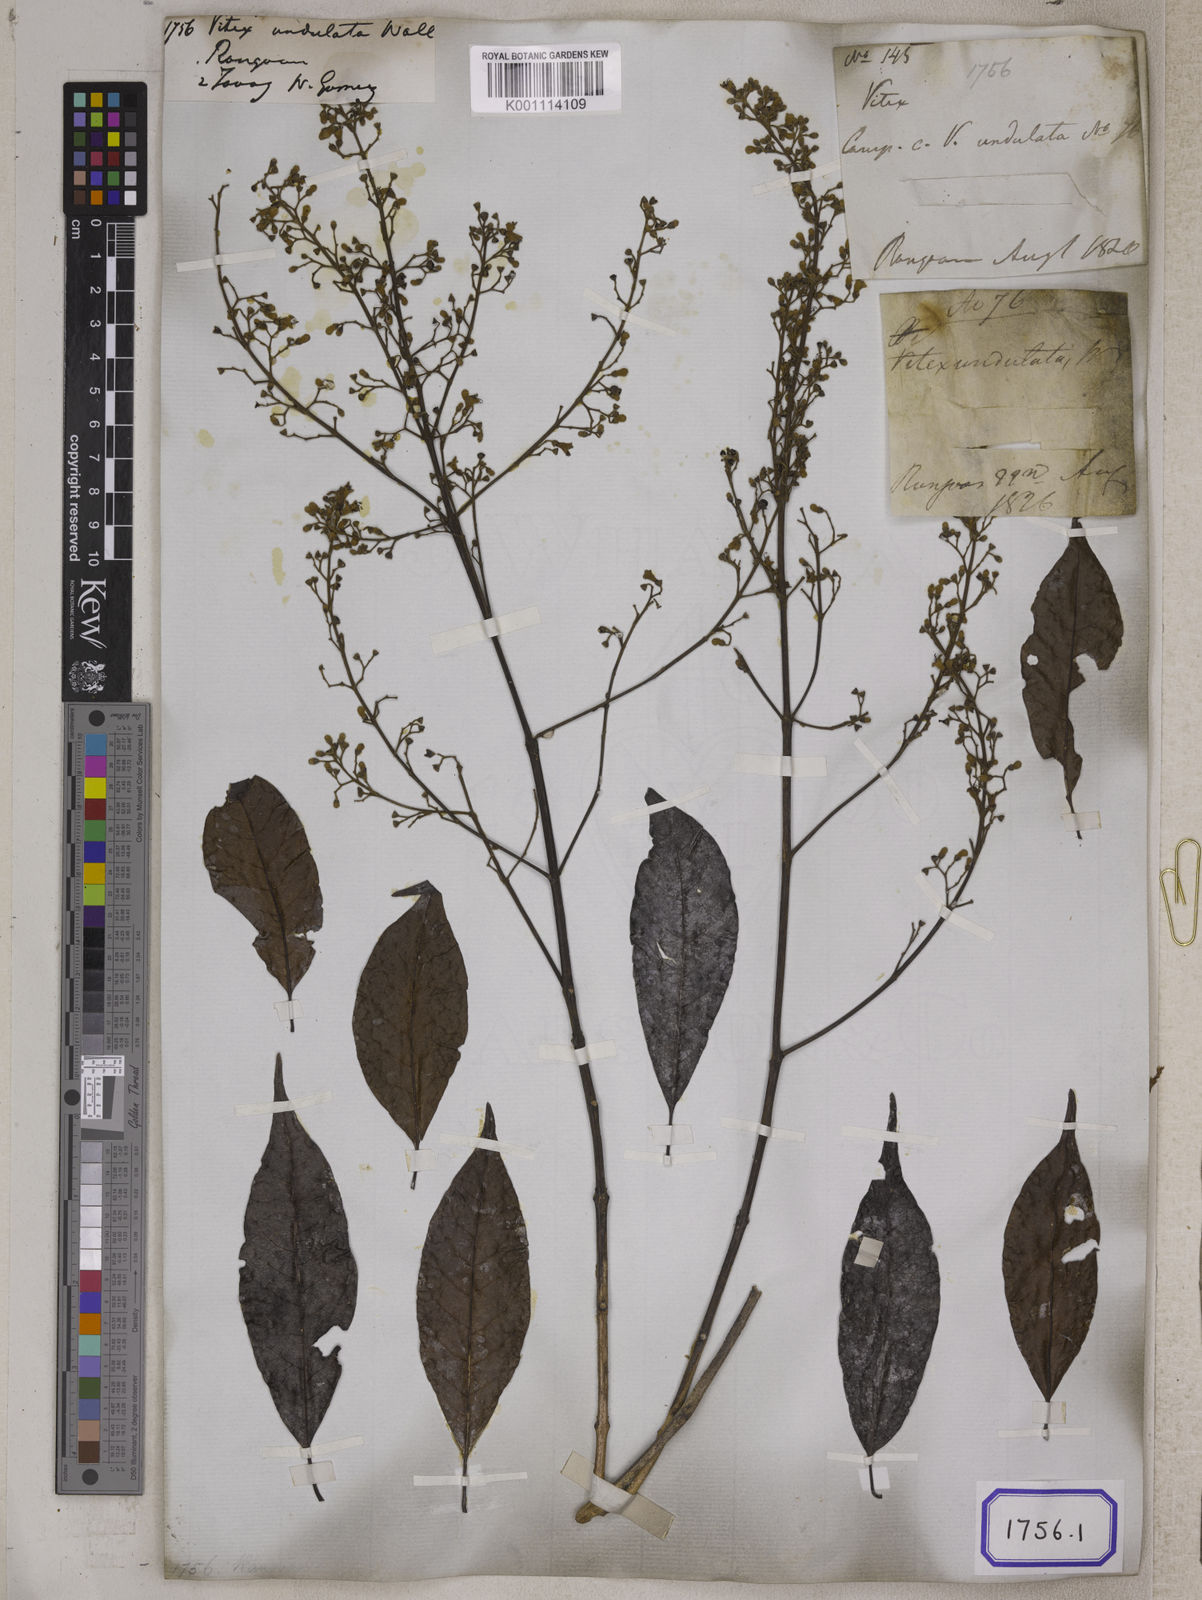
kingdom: Plantae
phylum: Tracheophyta
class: Magnoliopsida
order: Lamiales
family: Lamiaceae
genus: Vitex
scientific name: Vitex quinata
